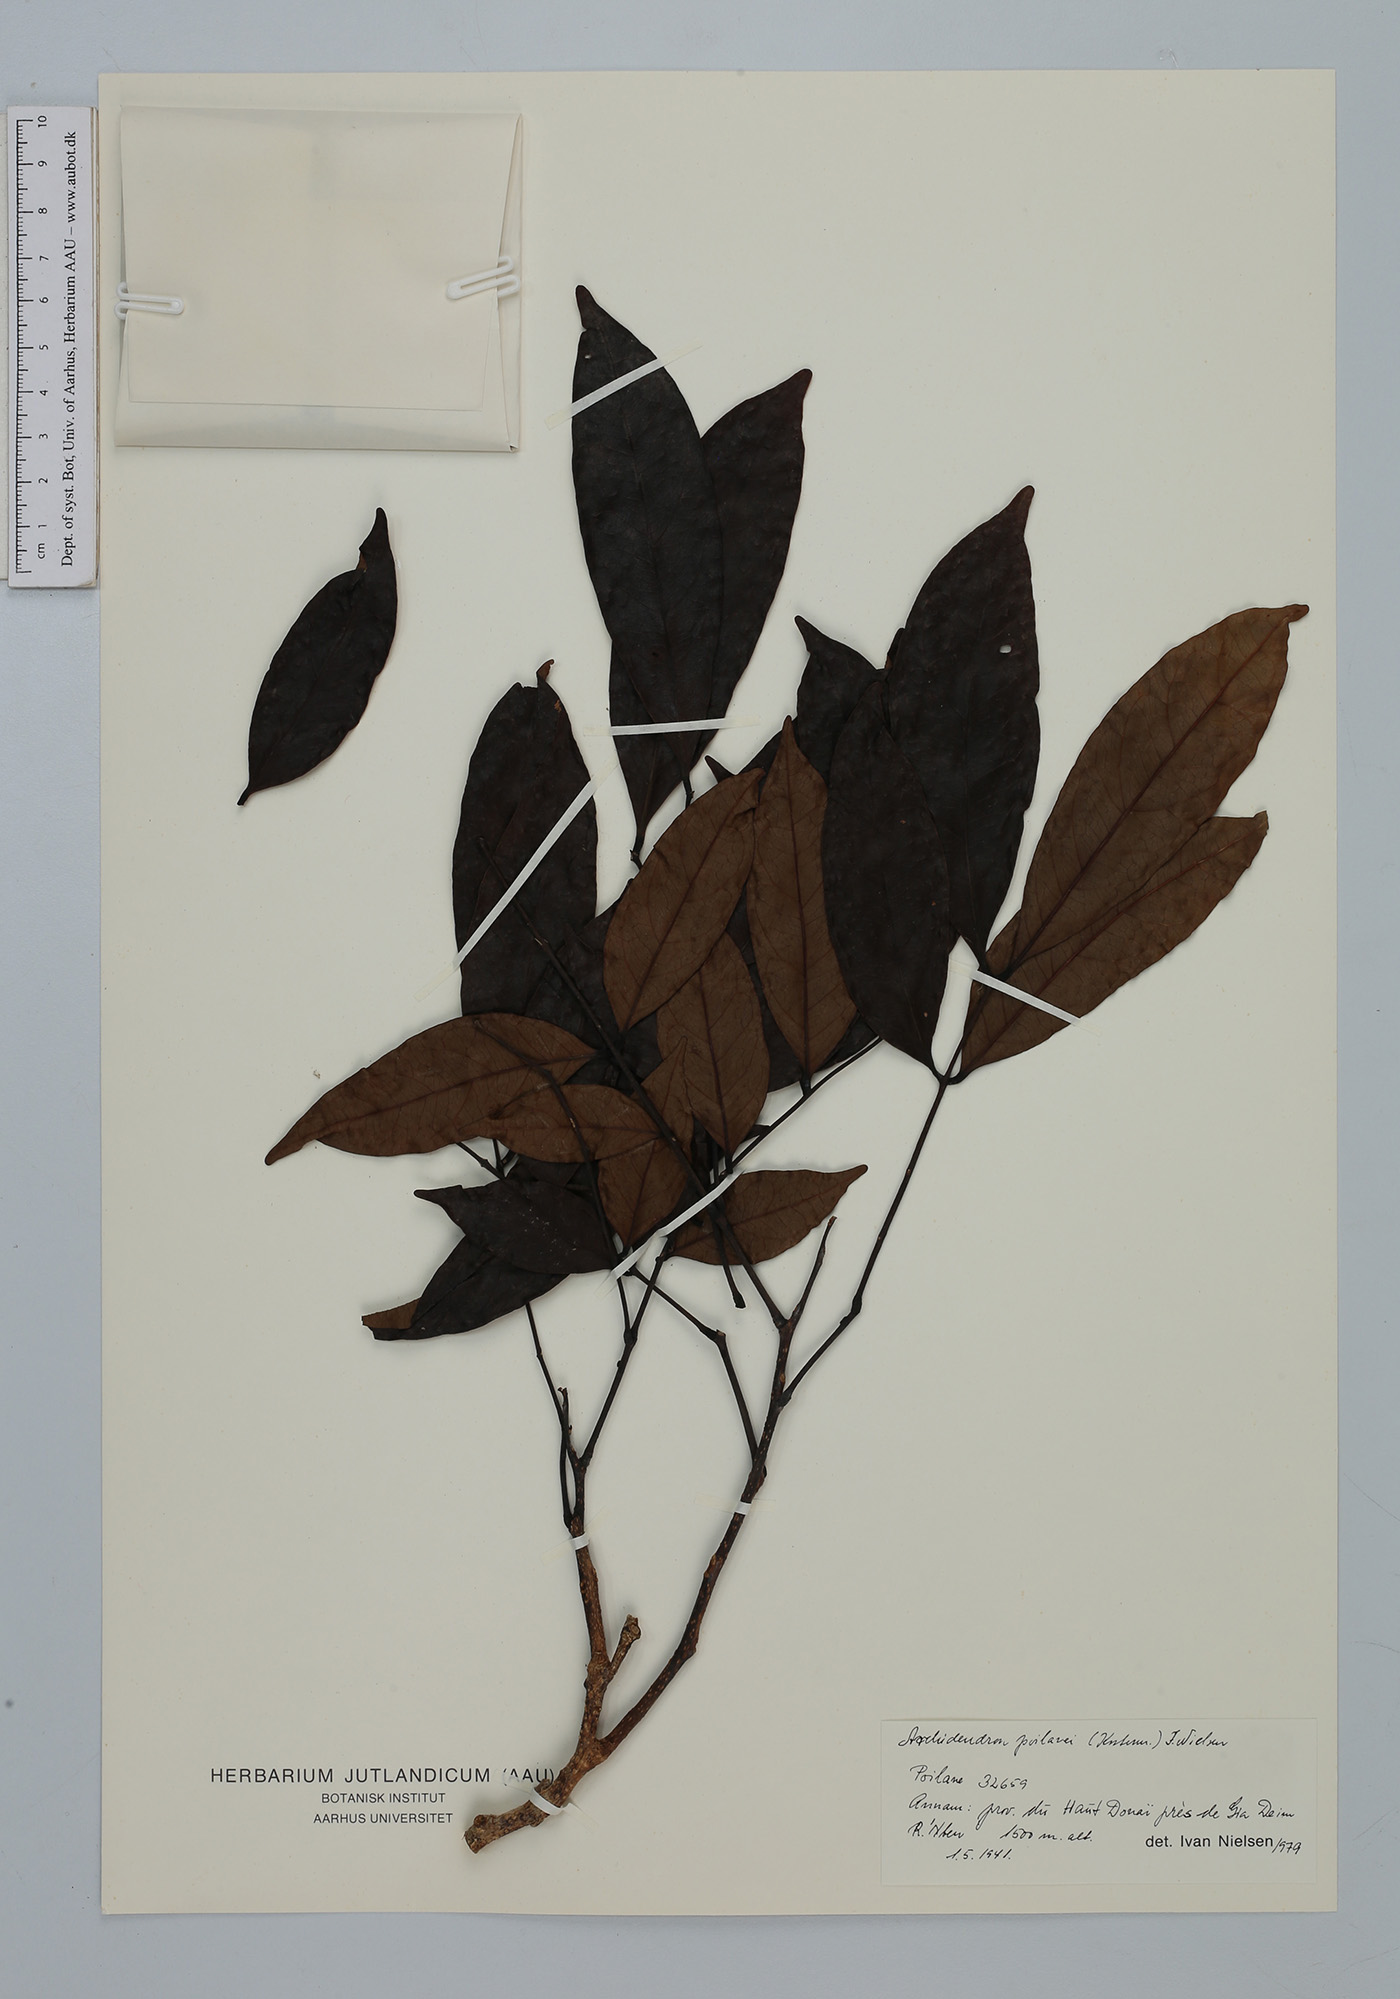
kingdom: Plantae
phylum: Tracheophyta
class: Magnoliopsida
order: Fabales
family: Fabaceae
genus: Archidendron
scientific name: Archidendron poilanei
